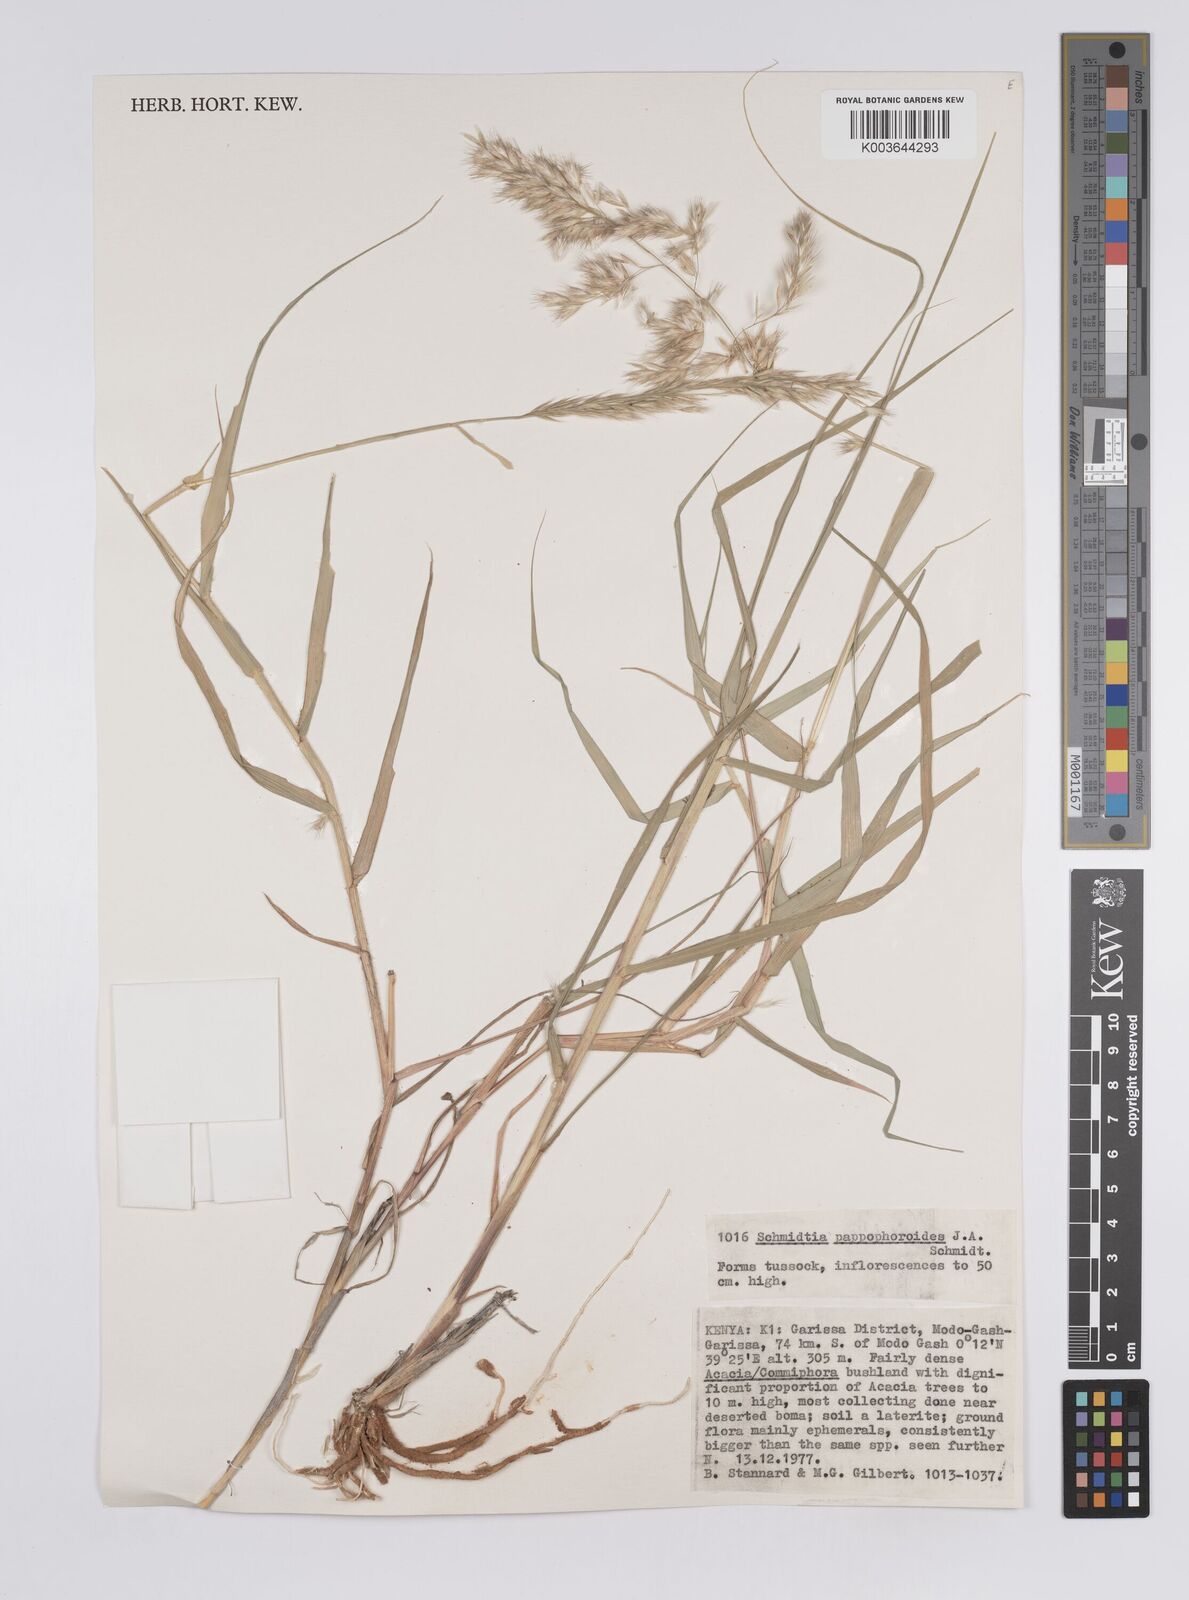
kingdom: Plantae
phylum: Tracheophyta
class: Liliopsida
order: Poales
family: Poaceae
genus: Schmidtia
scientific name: Schmidtia pappophoroides
